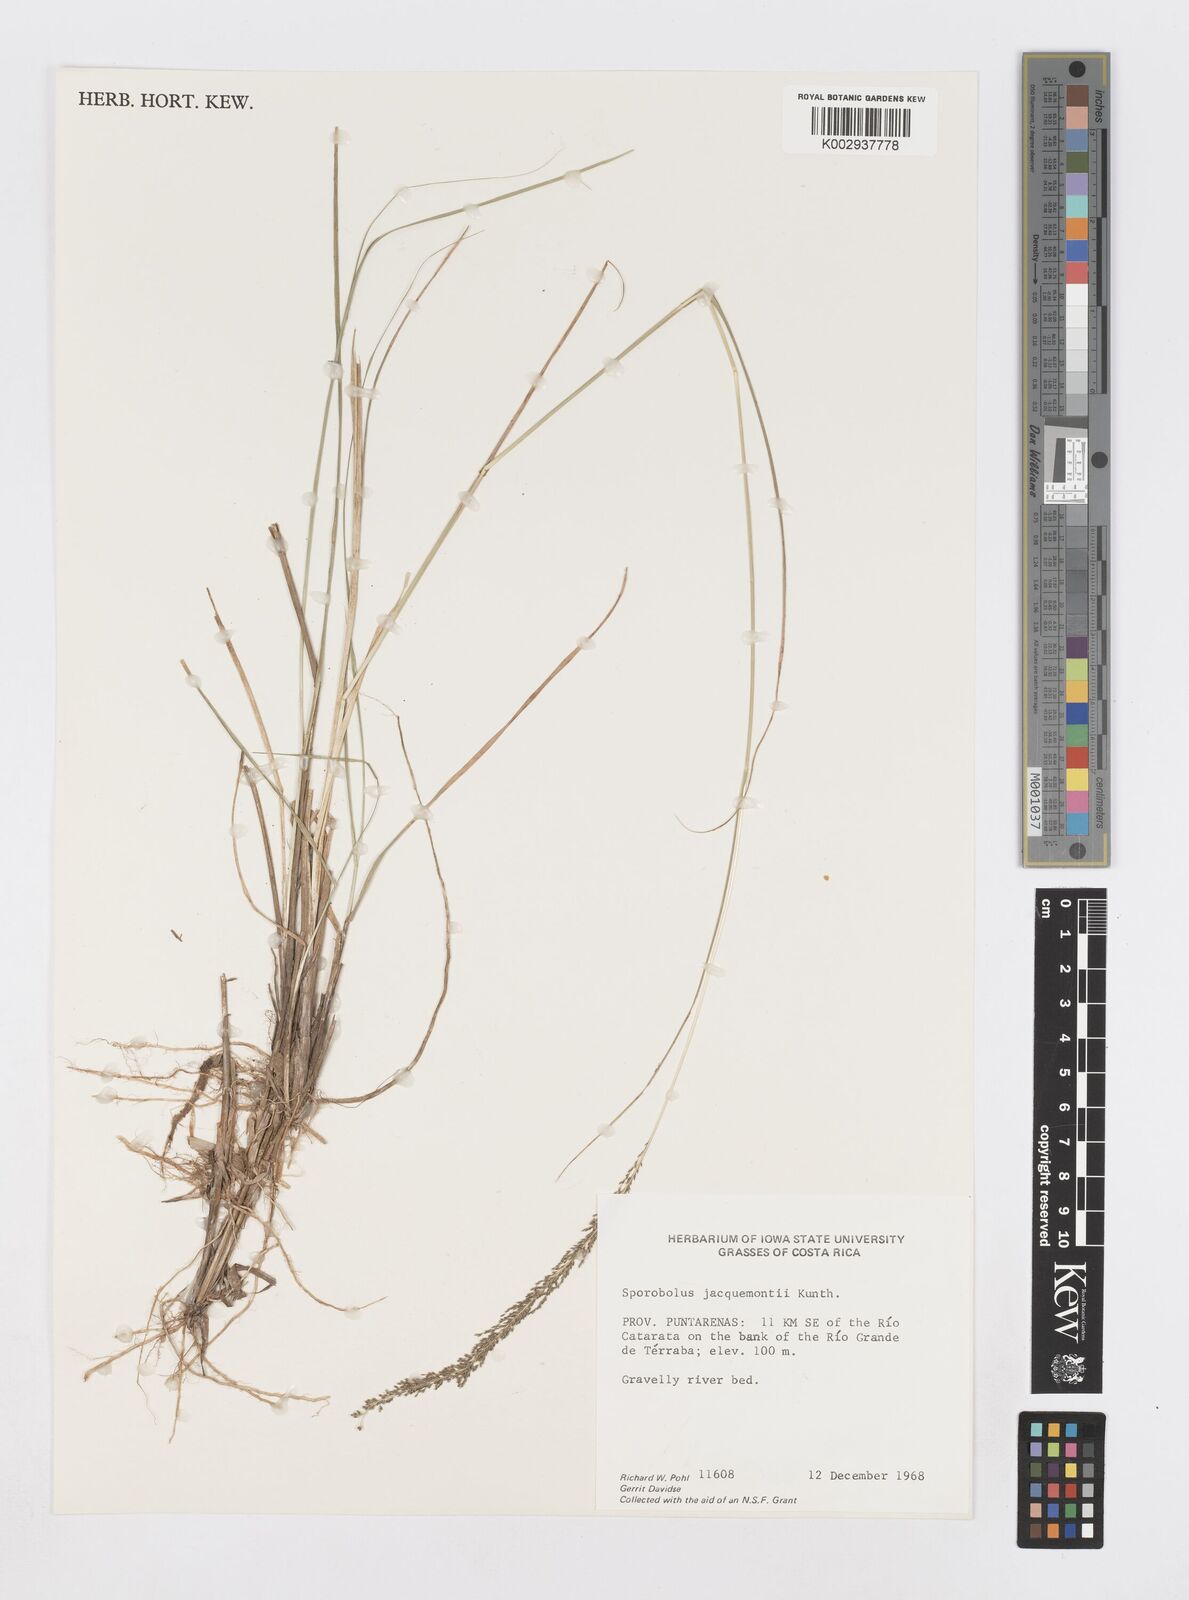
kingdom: Plantae
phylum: Tracheophyta
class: Liliopsida
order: Poales
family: Poaceae
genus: Sporobolus
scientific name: Sporobolus pyramidalis
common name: West indian dropseed
